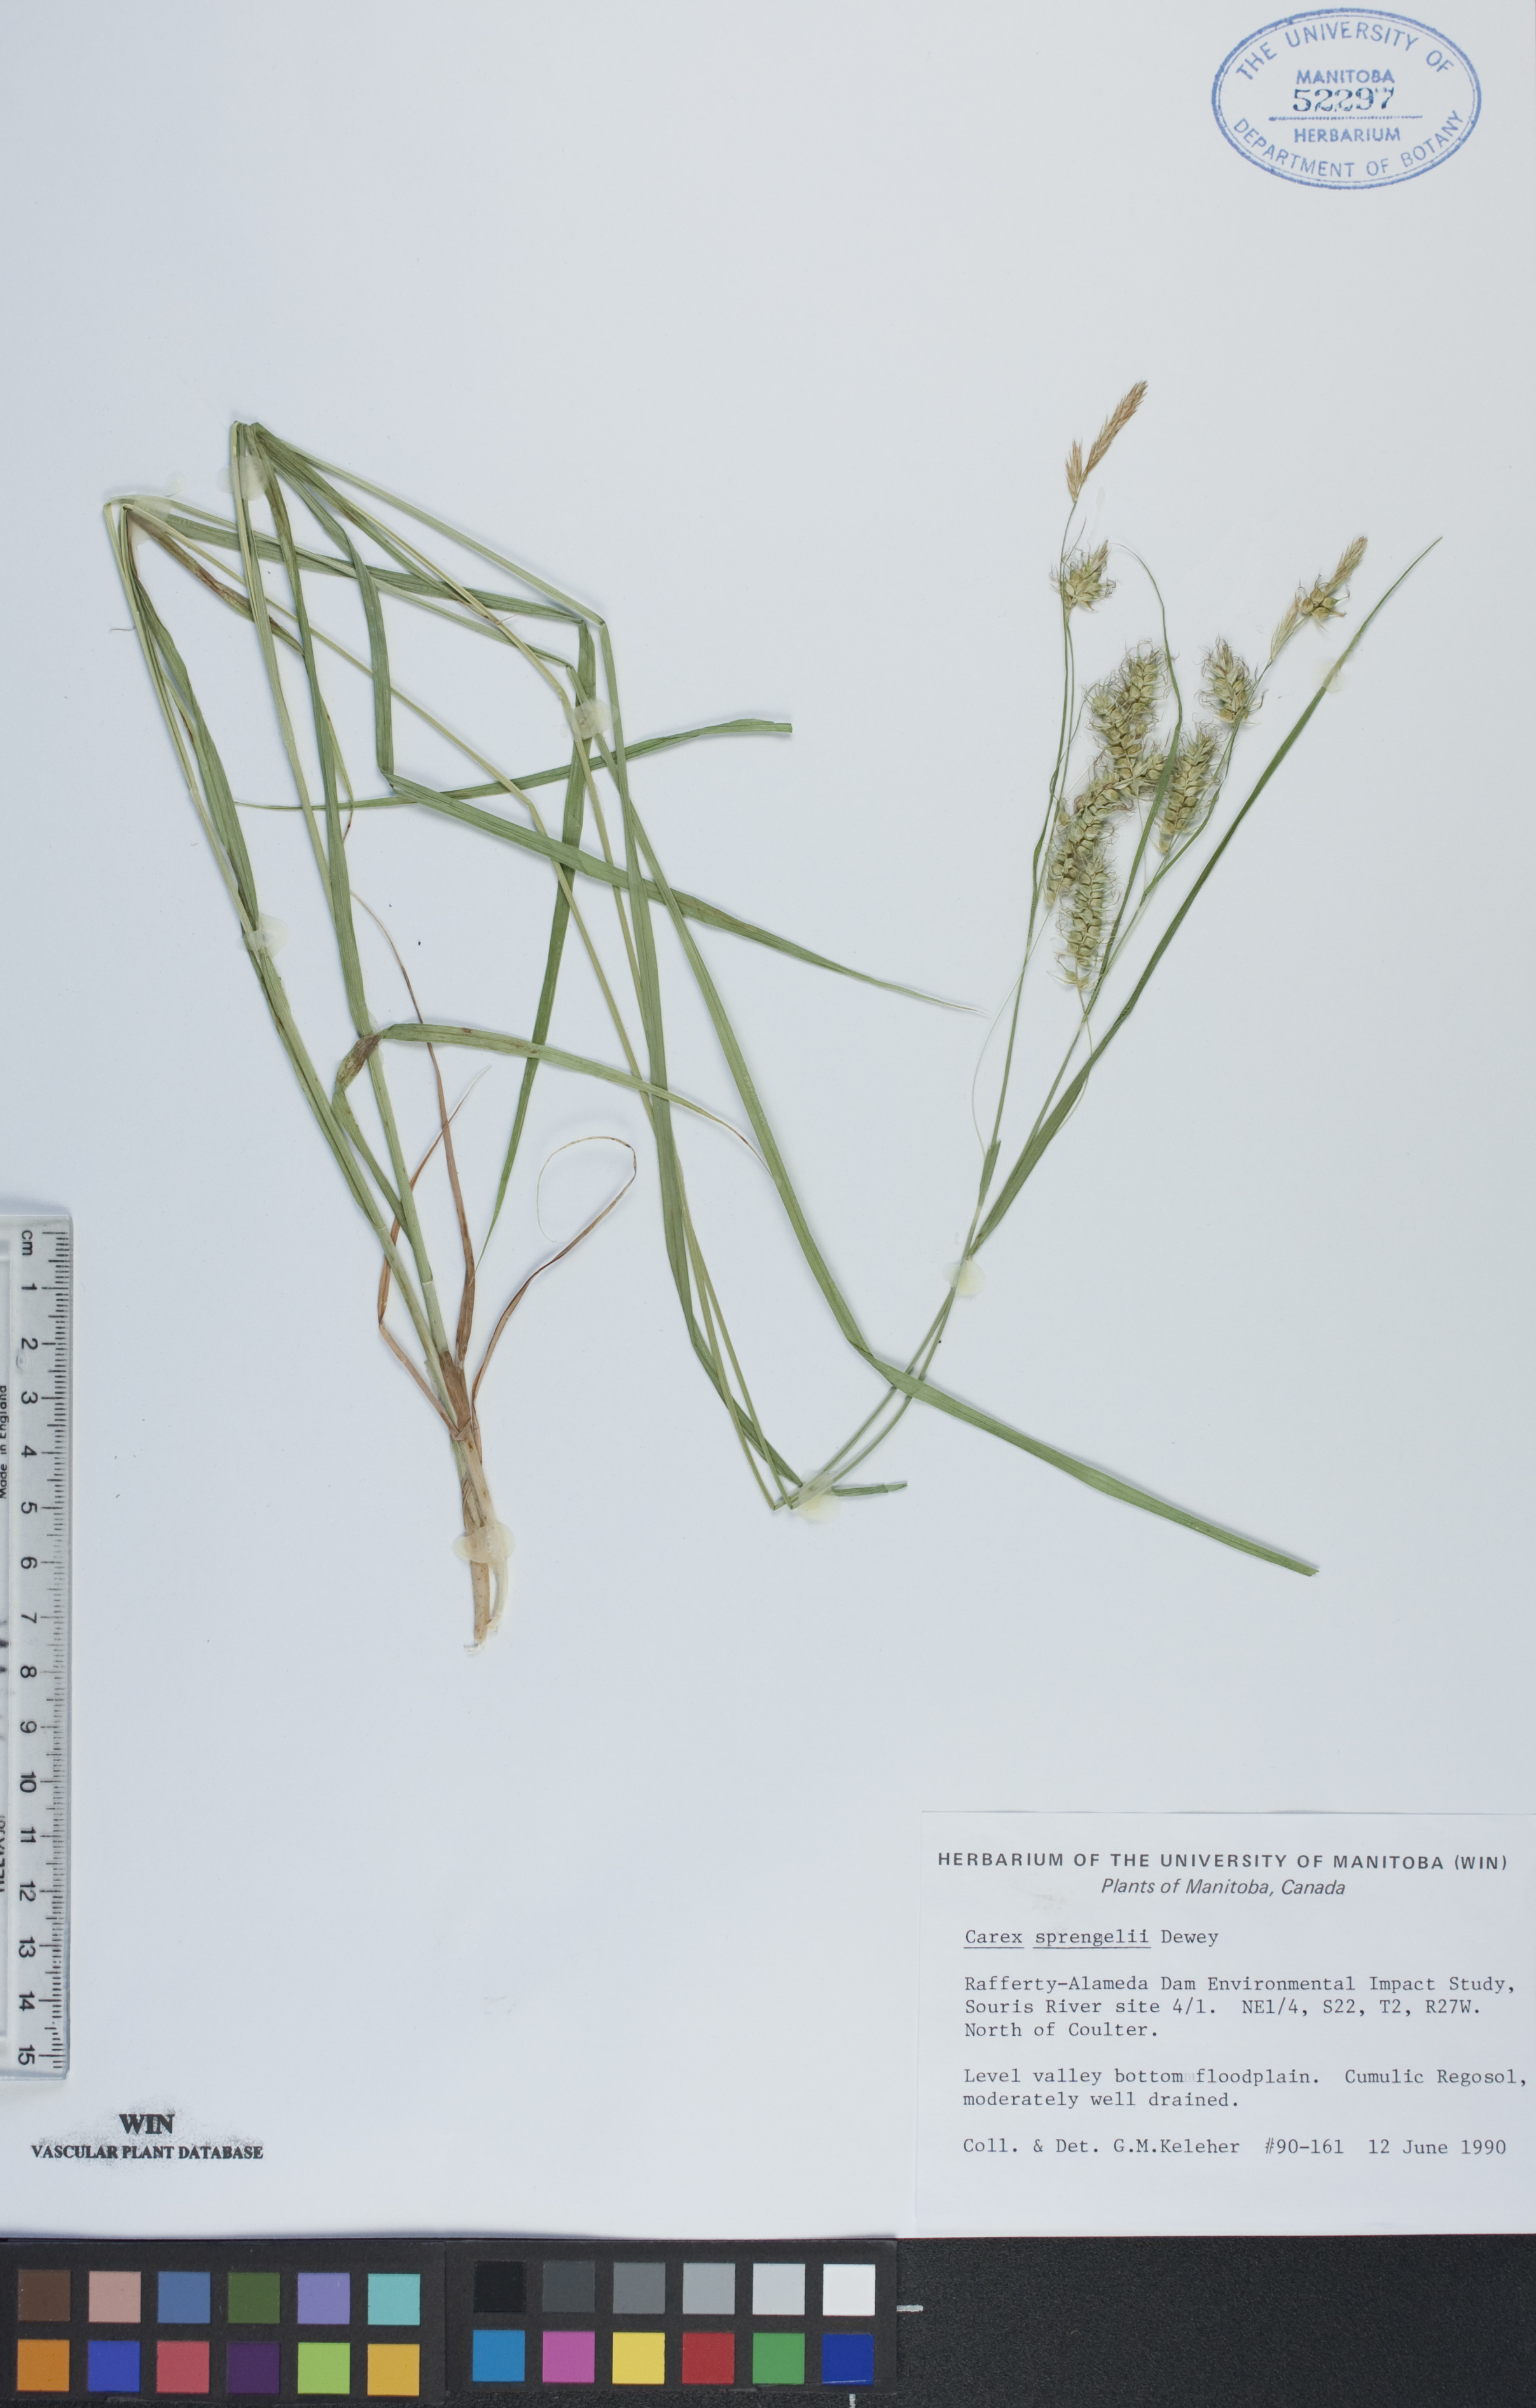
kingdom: Plantae
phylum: Tracheophyta
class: Liliopsida
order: Poales
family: Cyperaceae
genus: Carex
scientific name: Carex sprengelii
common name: Long-beaked sedge
